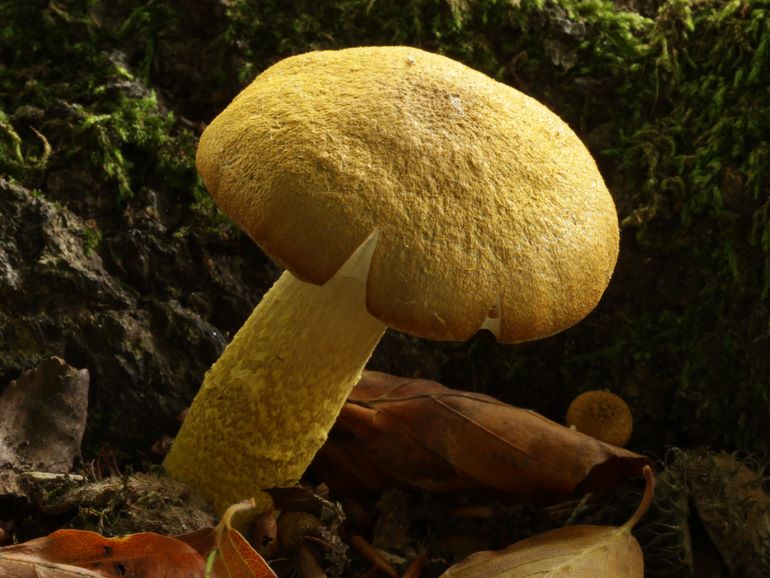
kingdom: Fungi
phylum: Basidiomycota
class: Agaricomycetes
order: Agaricales
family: Physalacriaceae
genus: Armillaria
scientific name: Armillaria lutea
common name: køllestokket honningsvamp
